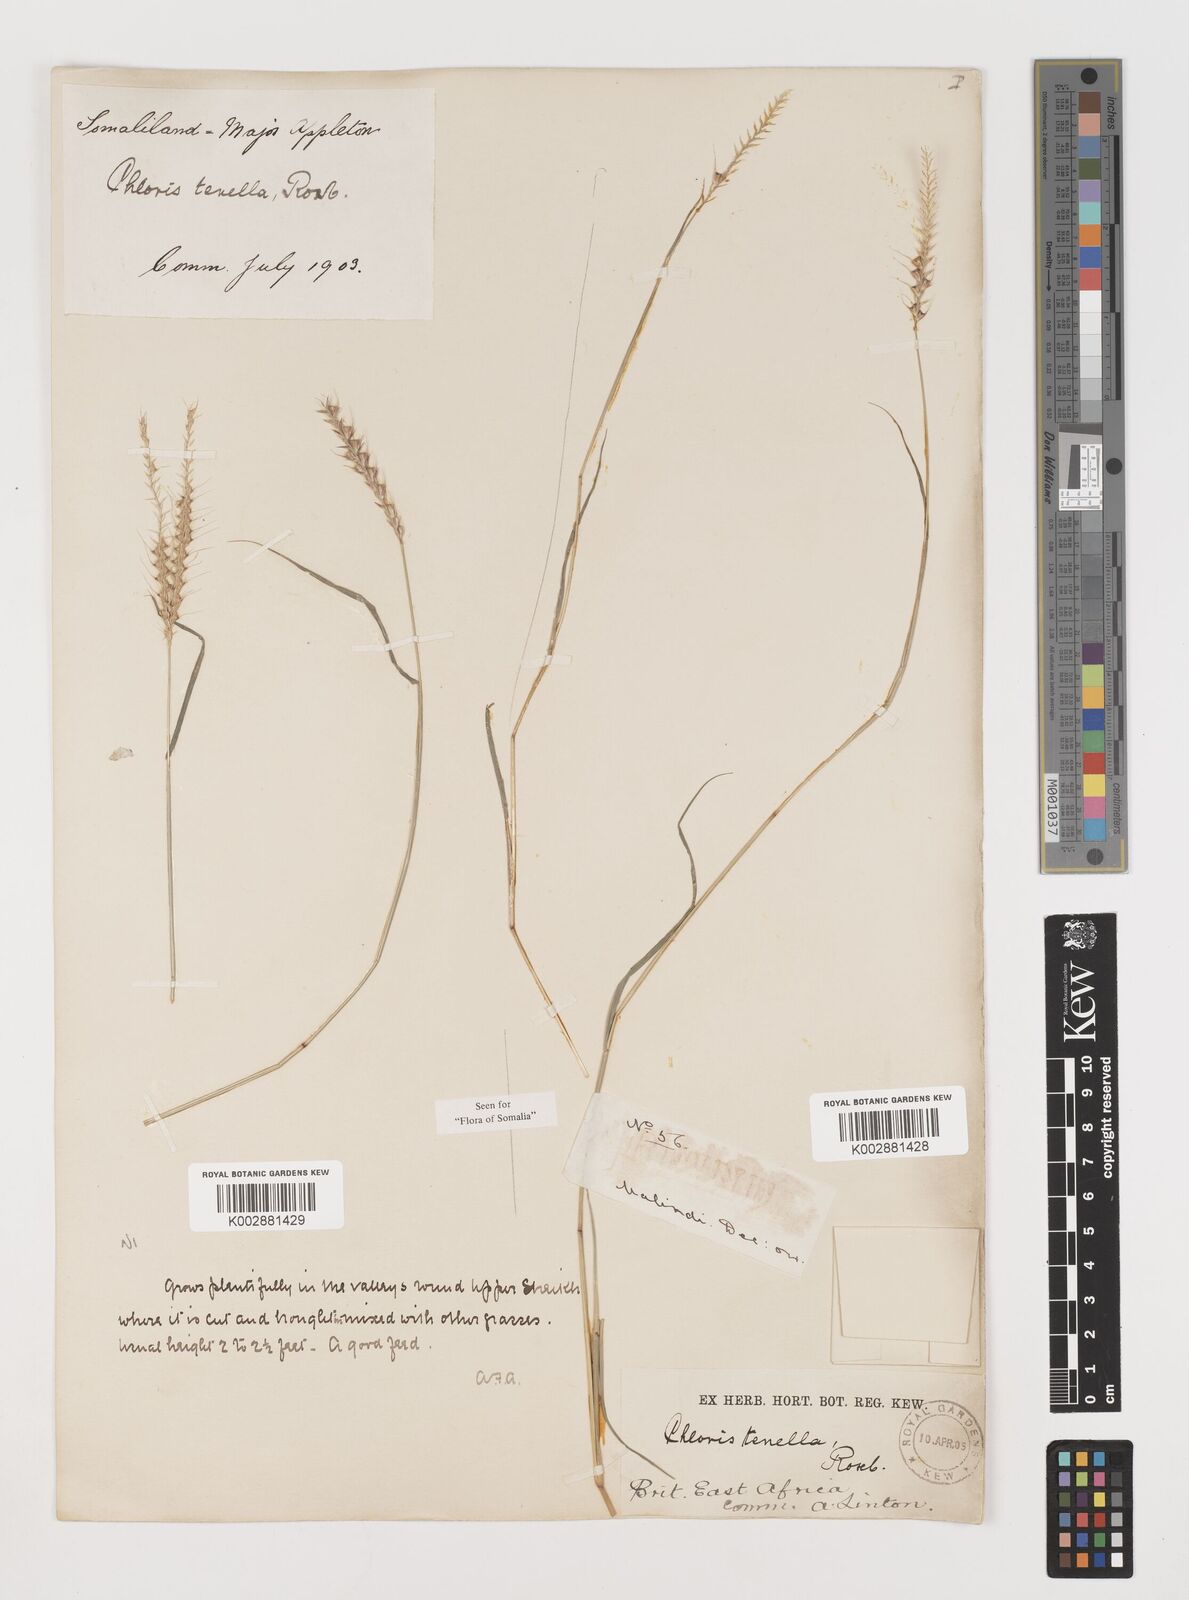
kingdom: Plantae
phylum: Tracheophyta
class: Liliopsida
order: Poales
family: Poaceae
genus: Tetrapogon
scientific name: Tetrapogon tenellus
